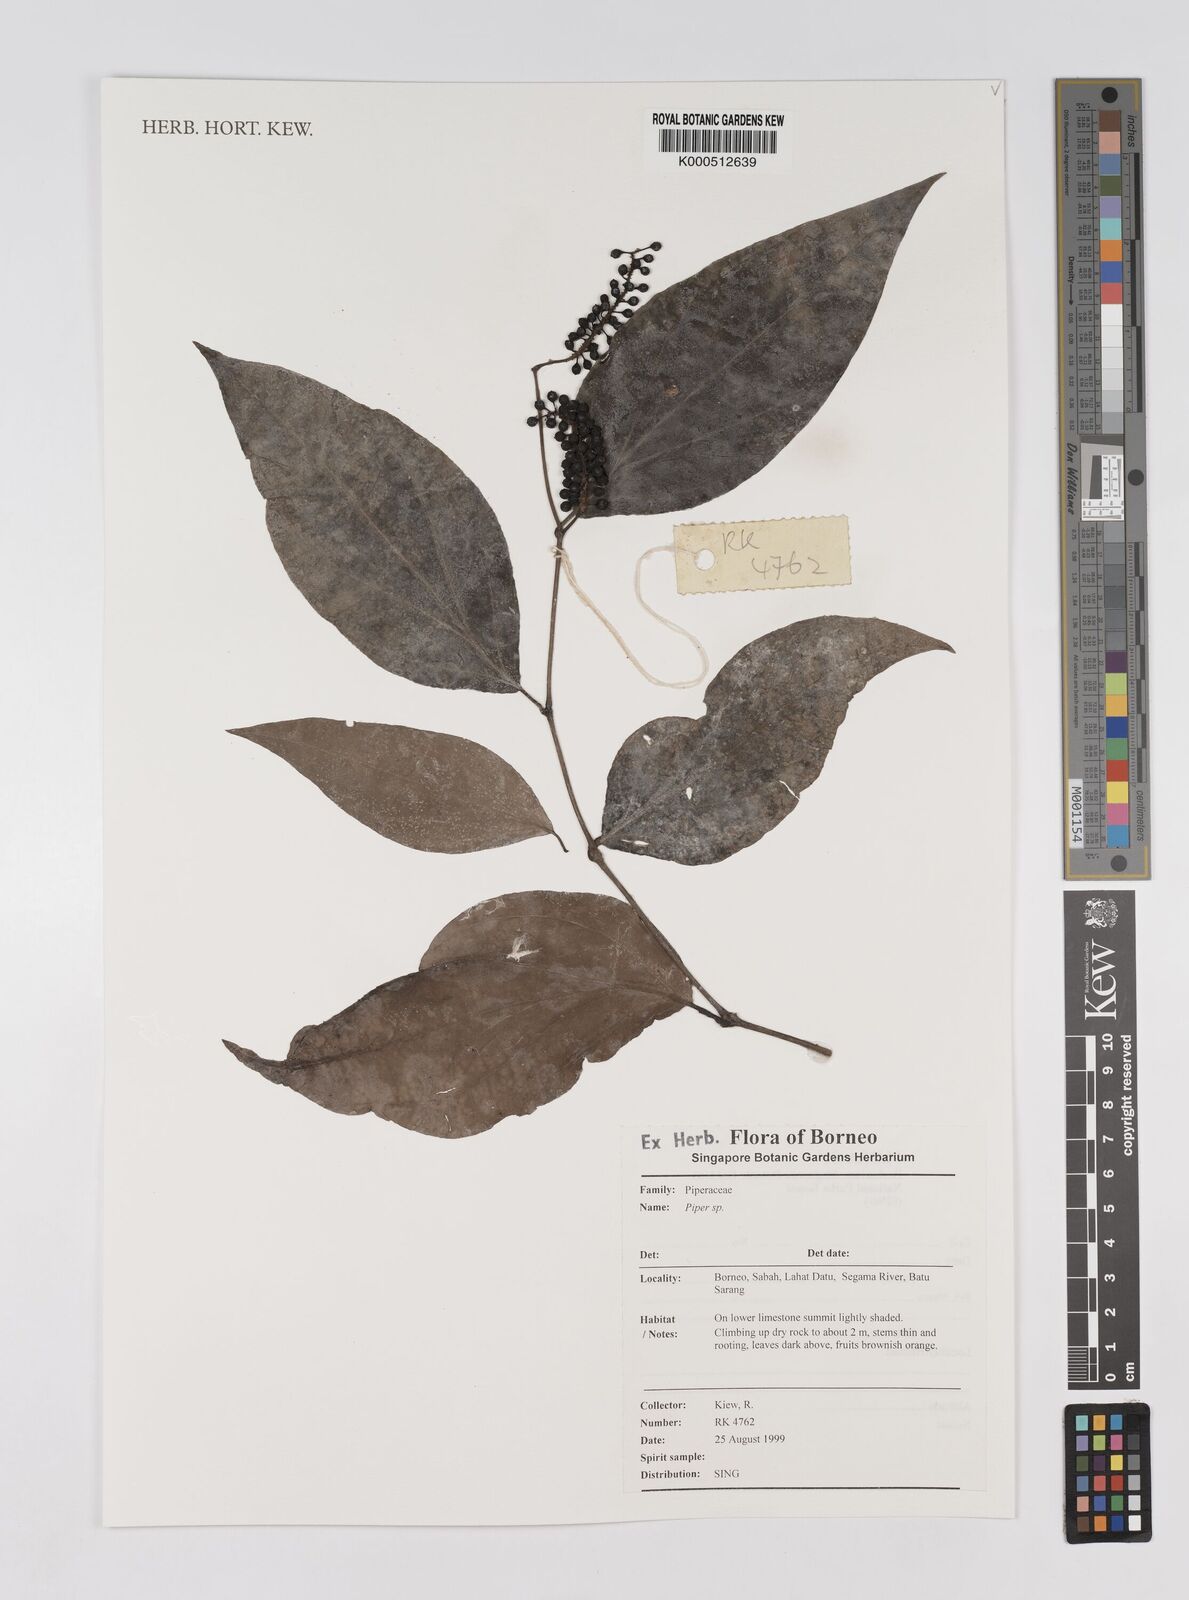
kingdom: Plantae
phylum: Tracheophyta
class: Magnoliopsida
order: Piperales
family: Piperaceae
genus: Piper
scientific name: Piper
